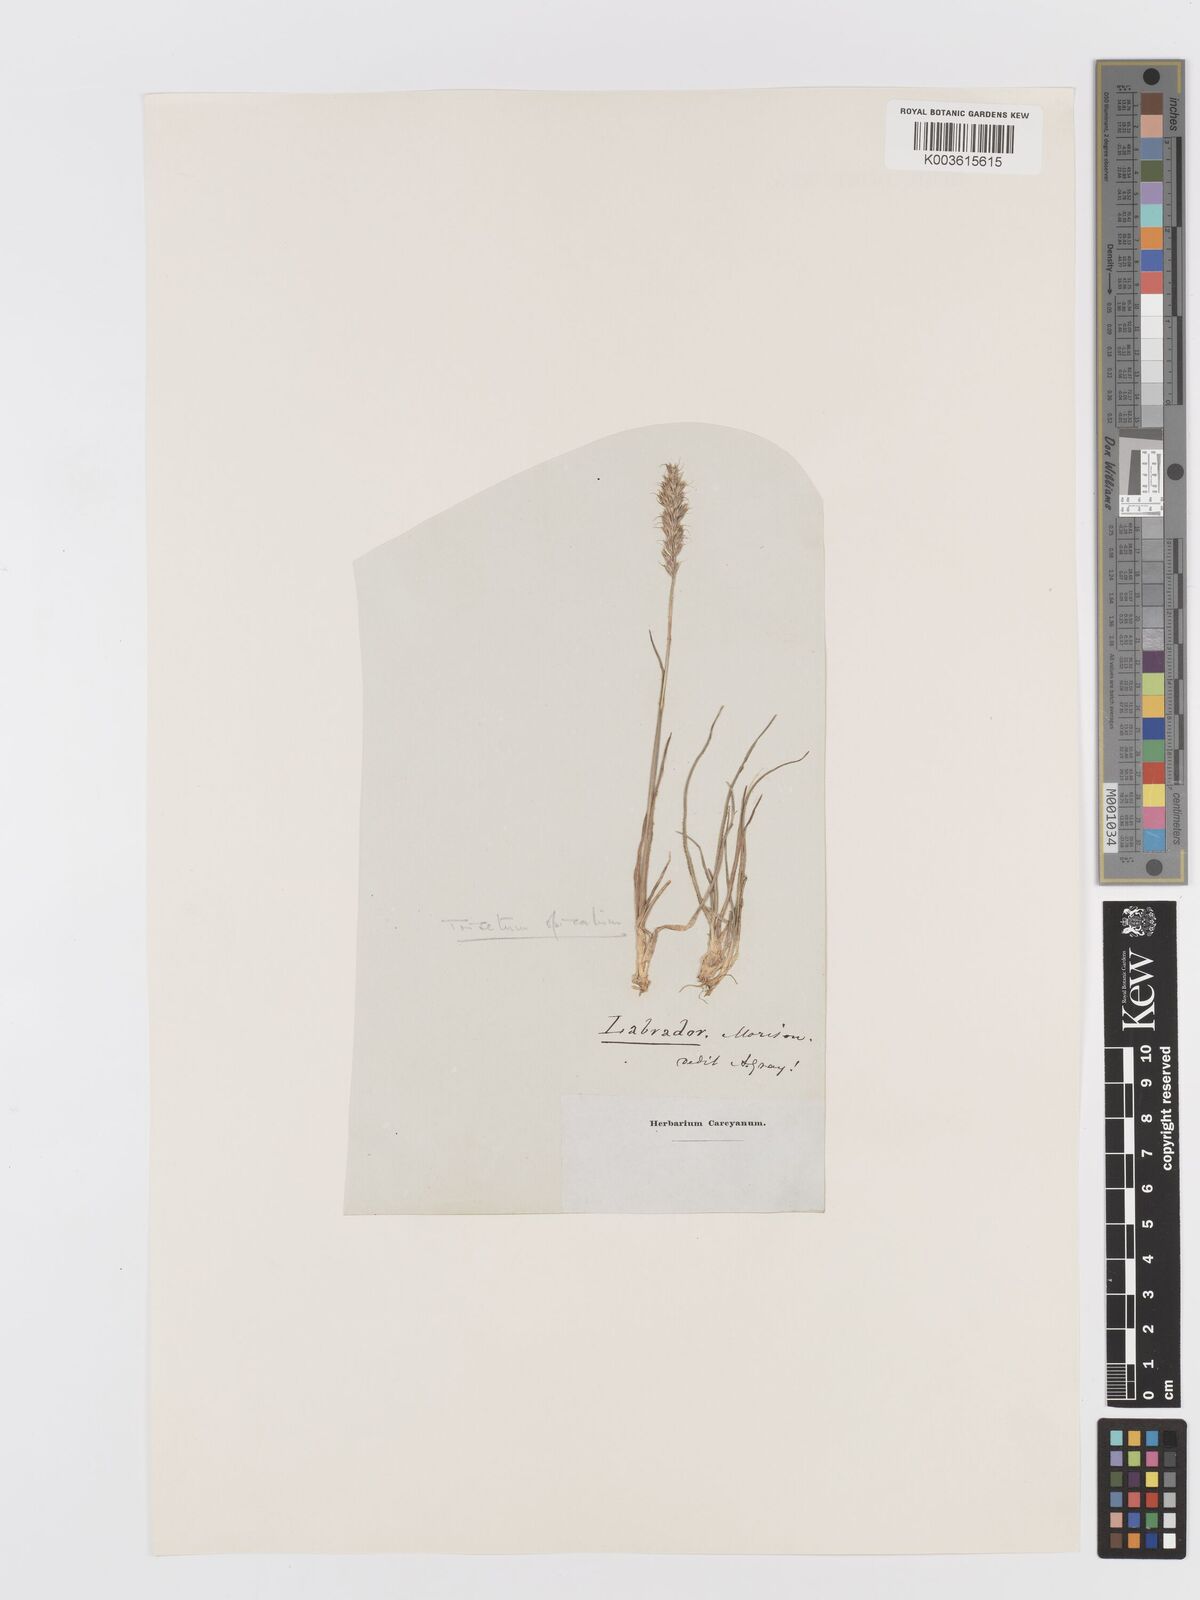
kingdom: Plantae
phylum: Tracheophyta
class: Liliopsida
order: Poales
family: Poaceae
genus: Koeleria
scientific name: Koeleria spicata
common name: Mountain trisetum
